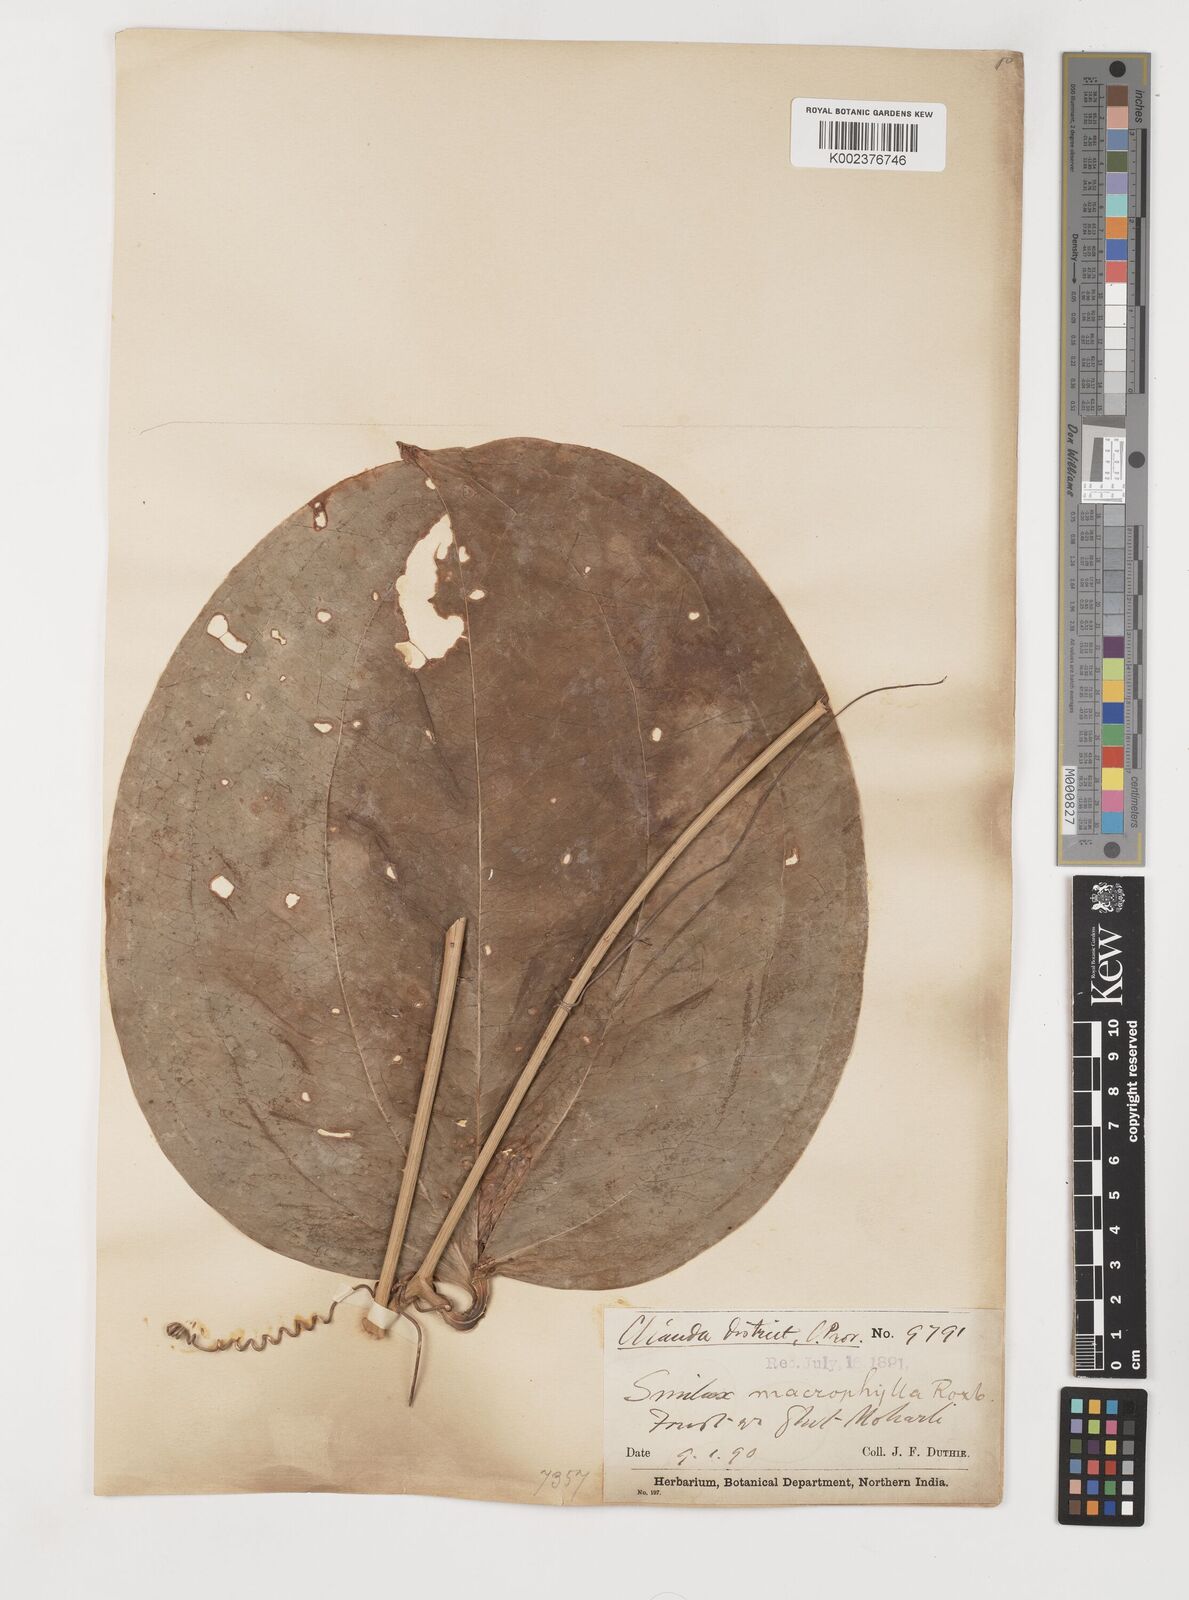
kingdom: Plantae
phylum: Tracheophyta
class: Liliopsida
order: Liliales
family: Smilacaceae
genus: Smilax
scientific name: Smilax ovalifolia
